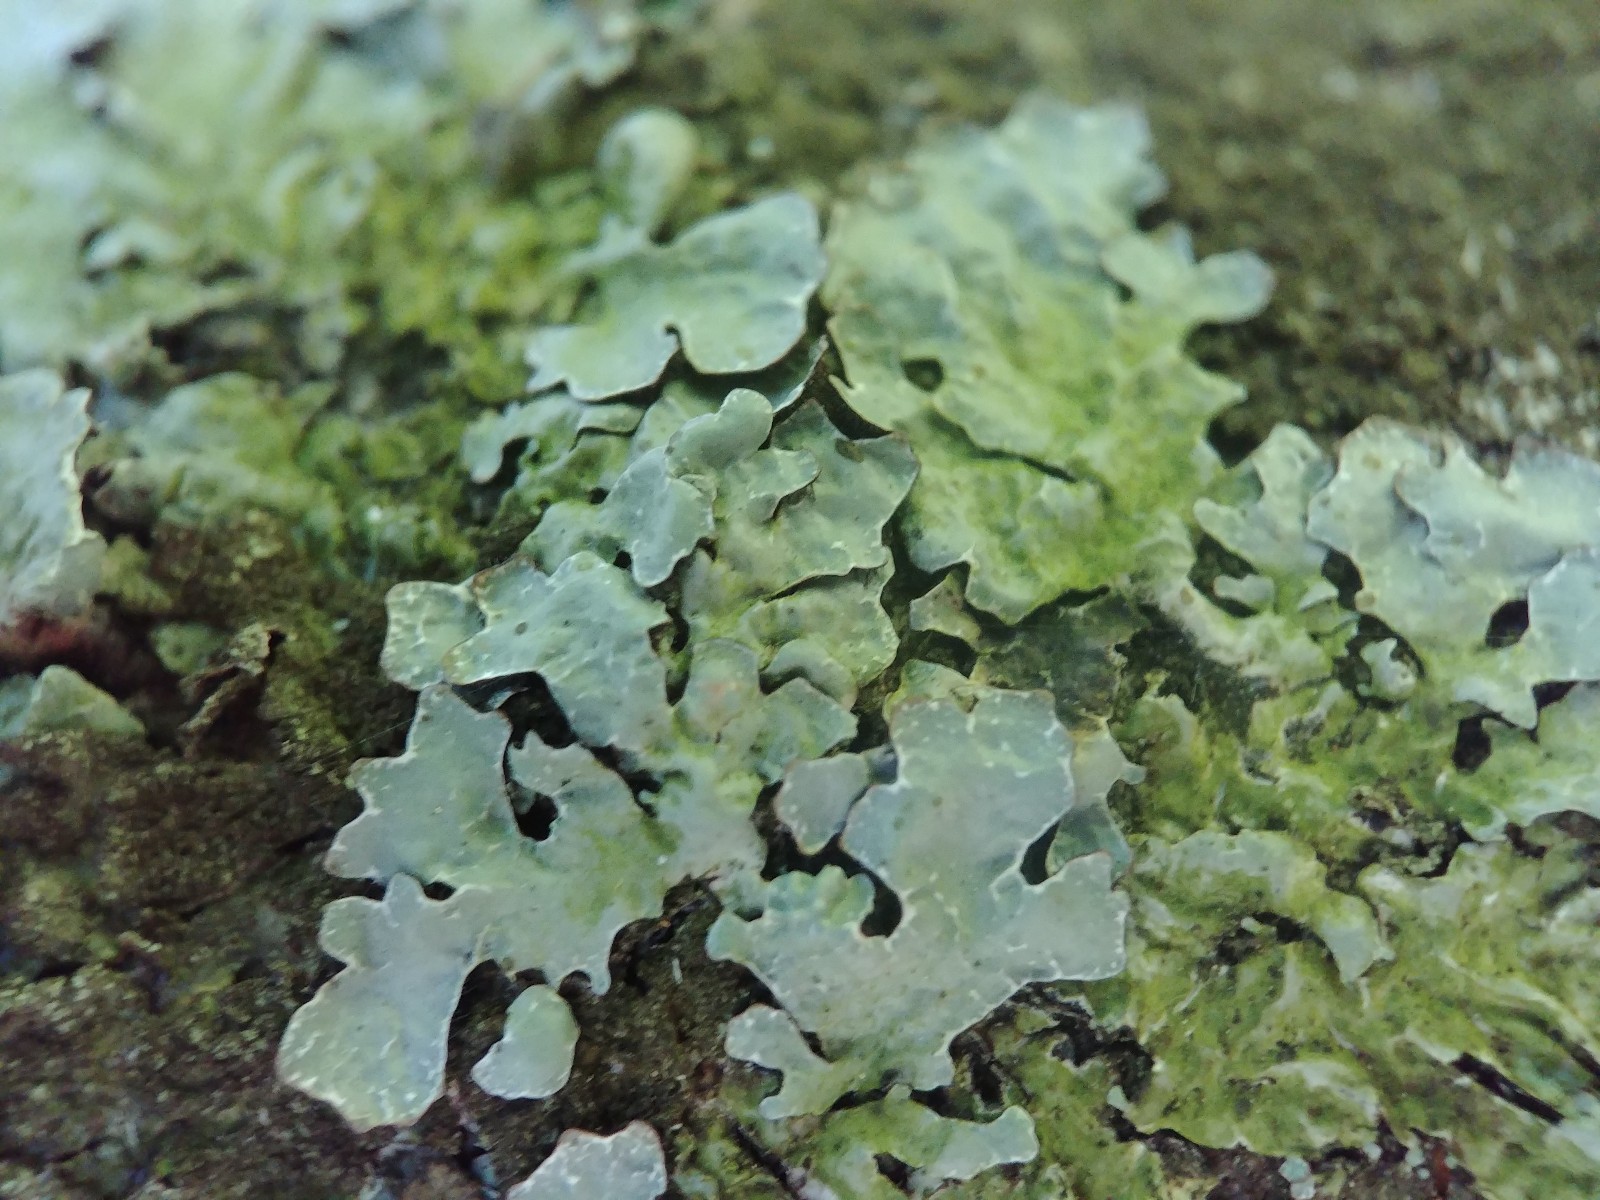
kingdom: Fungi
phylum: Ascomycota
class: Lecanoromycetes
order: Lecanorales
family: Parmeliaceae
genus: Parmelia
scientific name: Parmelia sulcata
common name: rynket skållav
